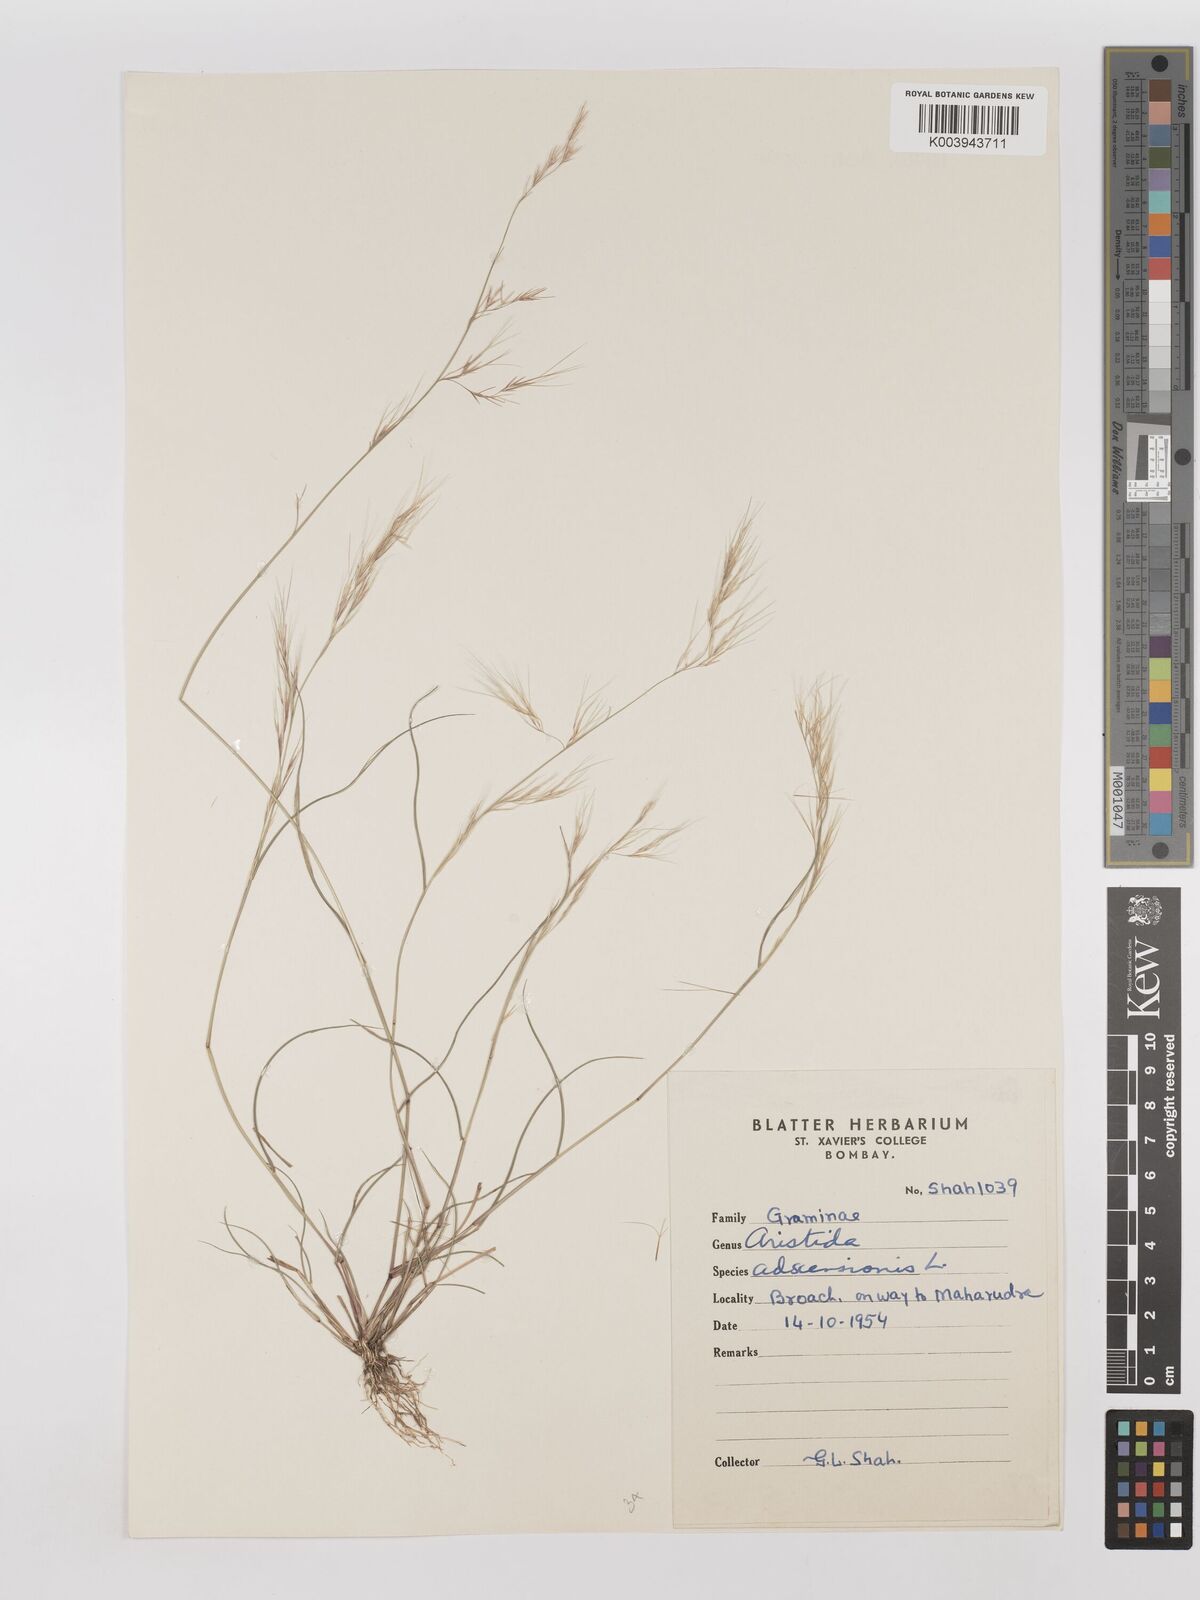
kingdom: Plantae
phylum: Tracheophyta
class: Liliopsida
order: Poales
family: Poaceae
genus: Aristida
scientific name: Aristida adscensionis
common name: Sixweeks threeawn
